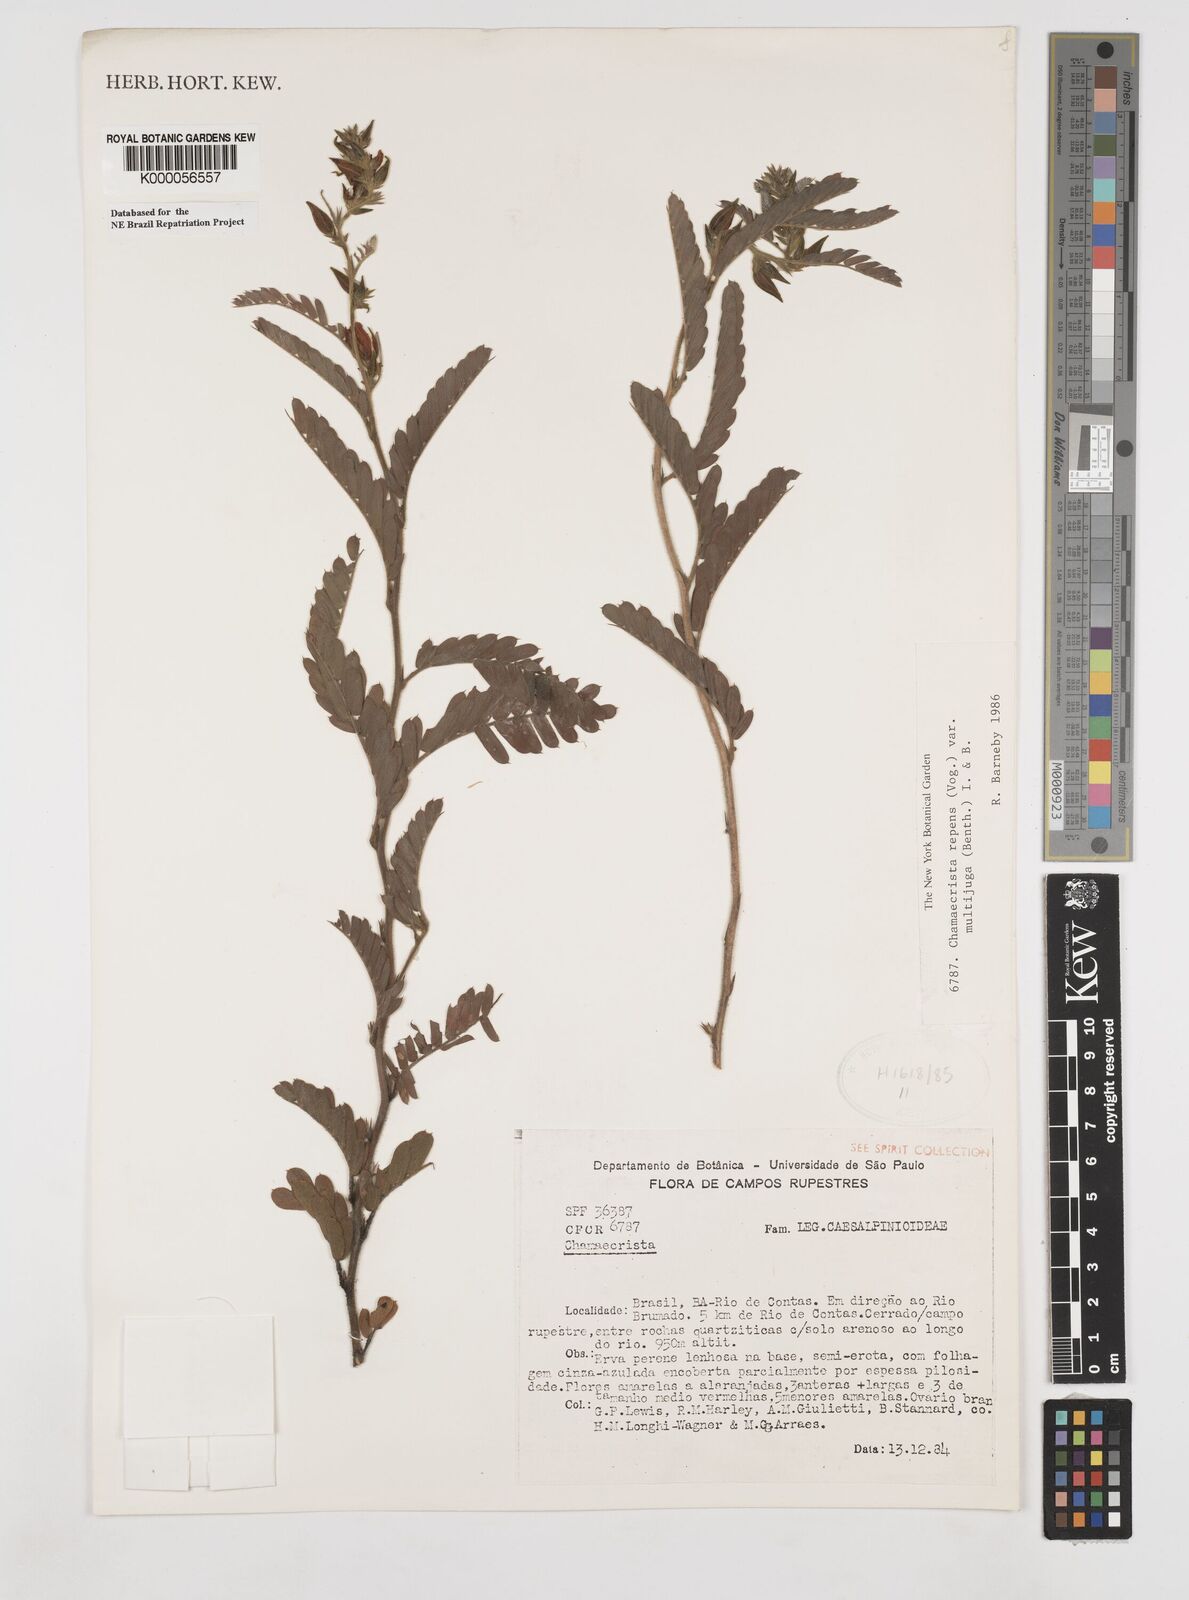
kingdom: Plantae
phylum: Tracheophyta
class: Magnoliopsida
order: Fabales
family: Fabaceae
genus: Chamaecrista
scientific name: Chamaecrista repens
